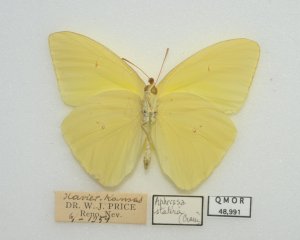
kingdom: Animalia
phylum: Arthropoda
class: Insecta
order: Lepidoptera
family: Pieridae
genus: Aphrissa
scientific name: Aphrissa statira
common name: Statira Sulphur
